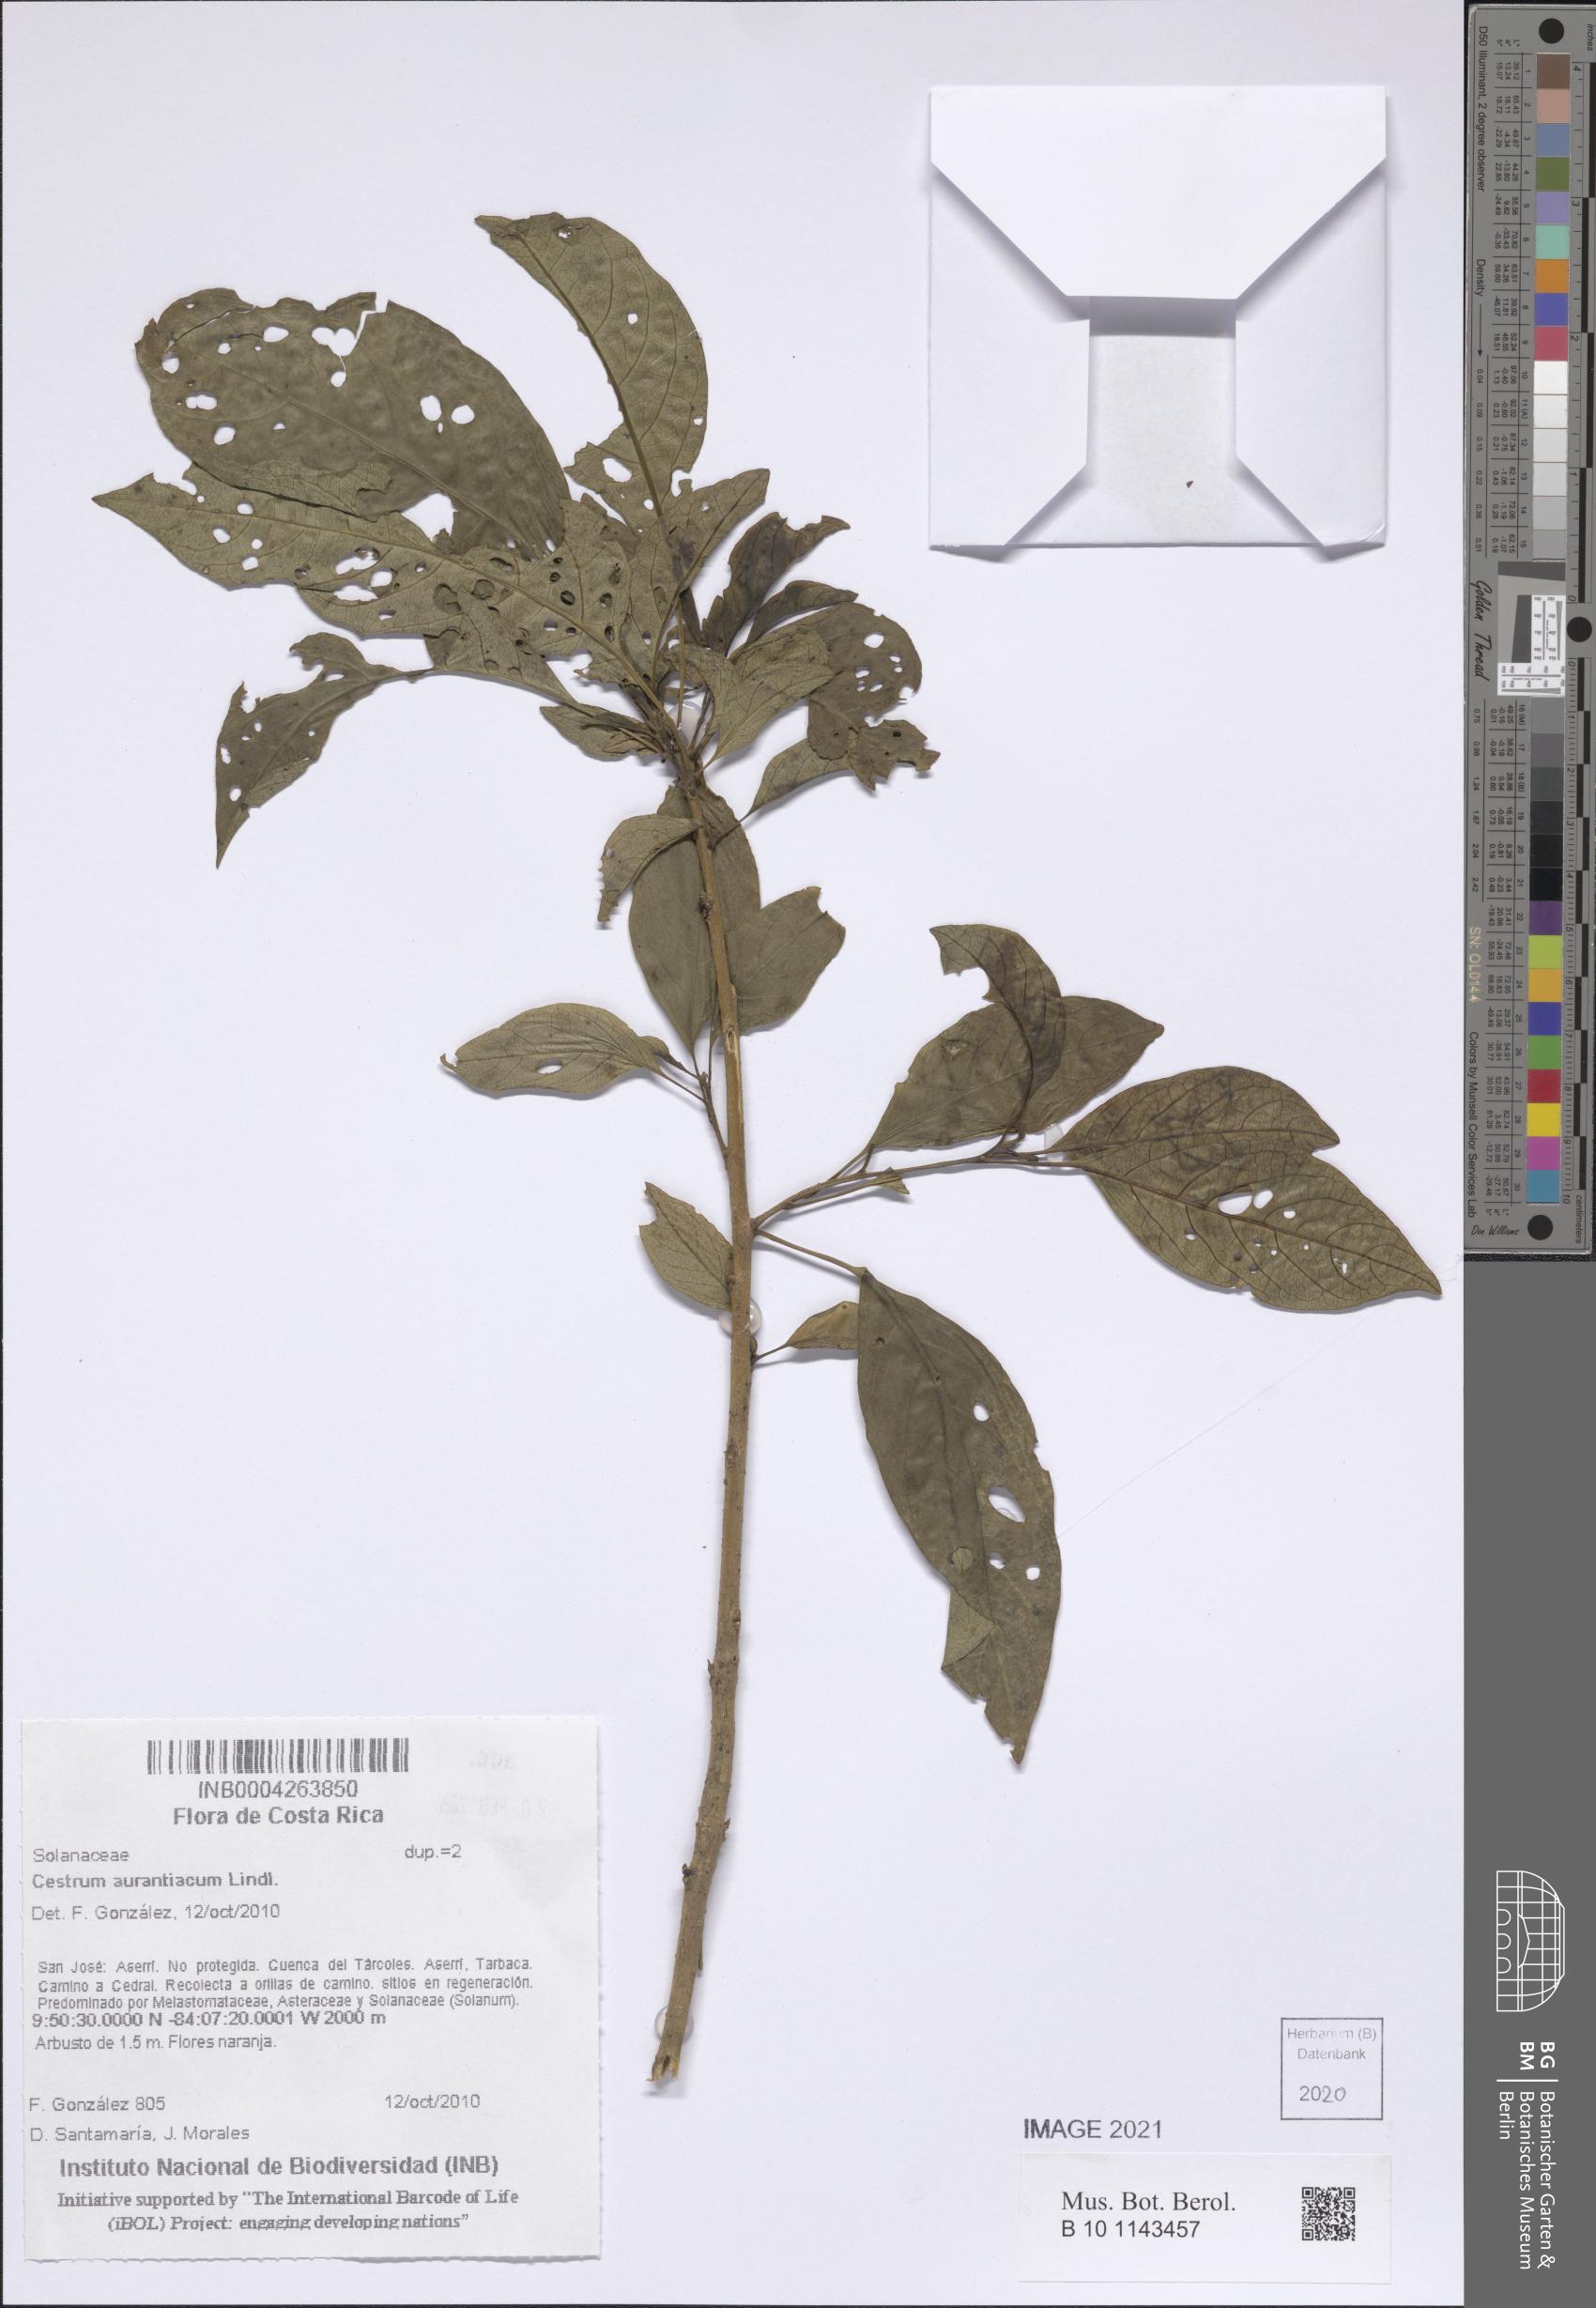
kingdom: Plantae
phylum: Tracheophyta
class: Magnoliopsida
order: Solanales
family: Solanaceae
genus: Cestrum
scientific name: Cestrum aurantiacum
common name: Orange cestrum
